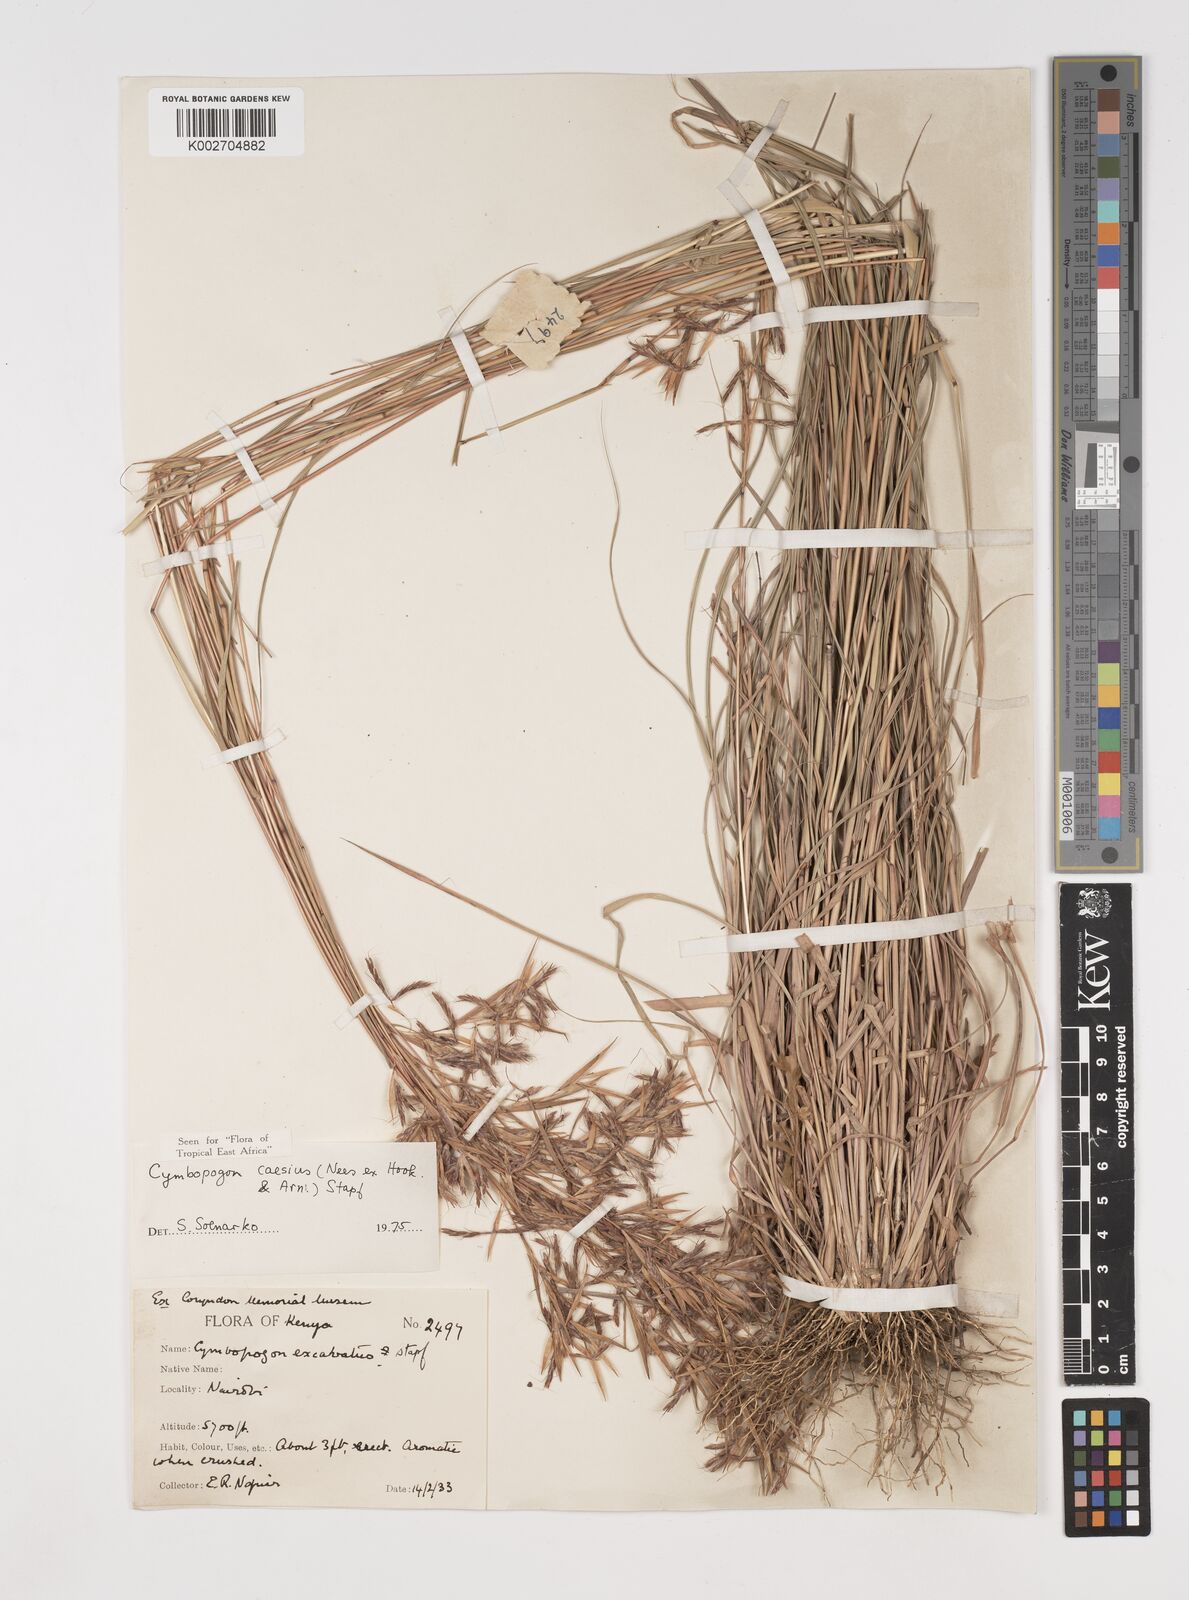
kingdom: Plantae
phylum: Tracheophyta
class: Liliopsida
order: Poales
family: Poaceae
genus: Cymbopogon
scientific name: Cymbopogon caesius
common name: Kachi grass
